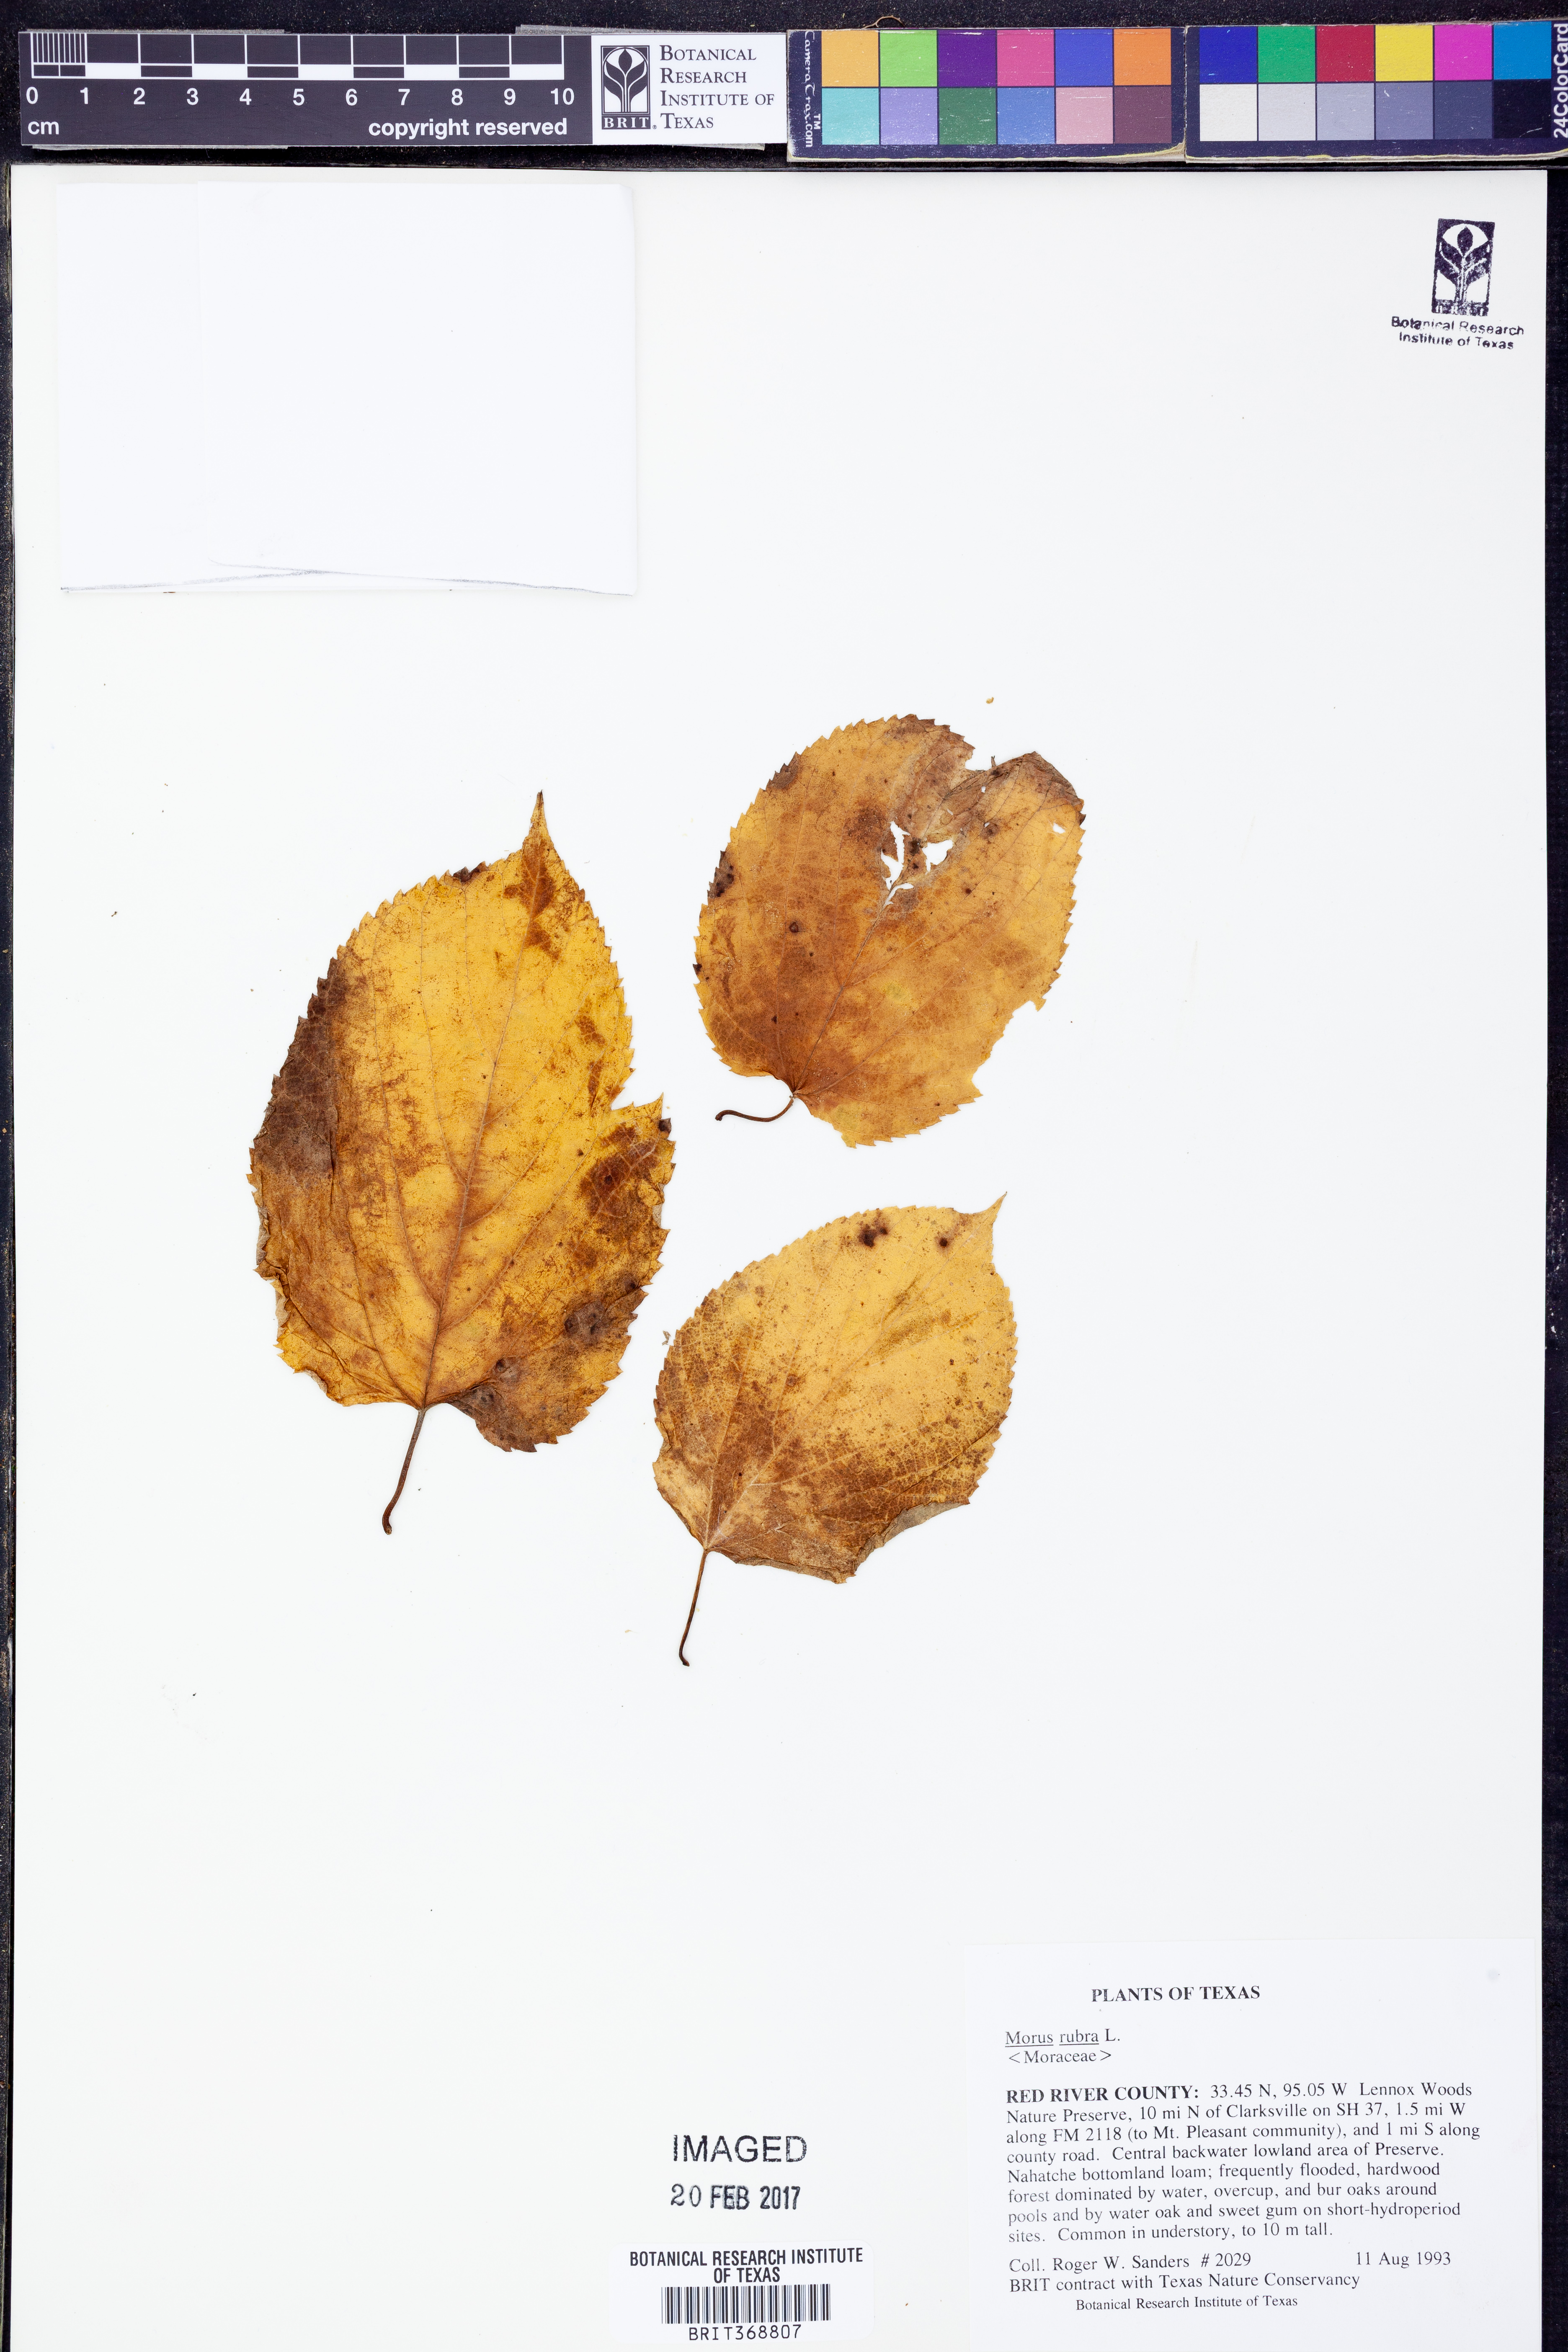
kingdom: Plantae
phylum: Tracheophyta
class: Magnoliopsida
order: Rosales
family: Moraceae
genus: Morus
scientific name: Morus rubra
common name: Red mulberry
